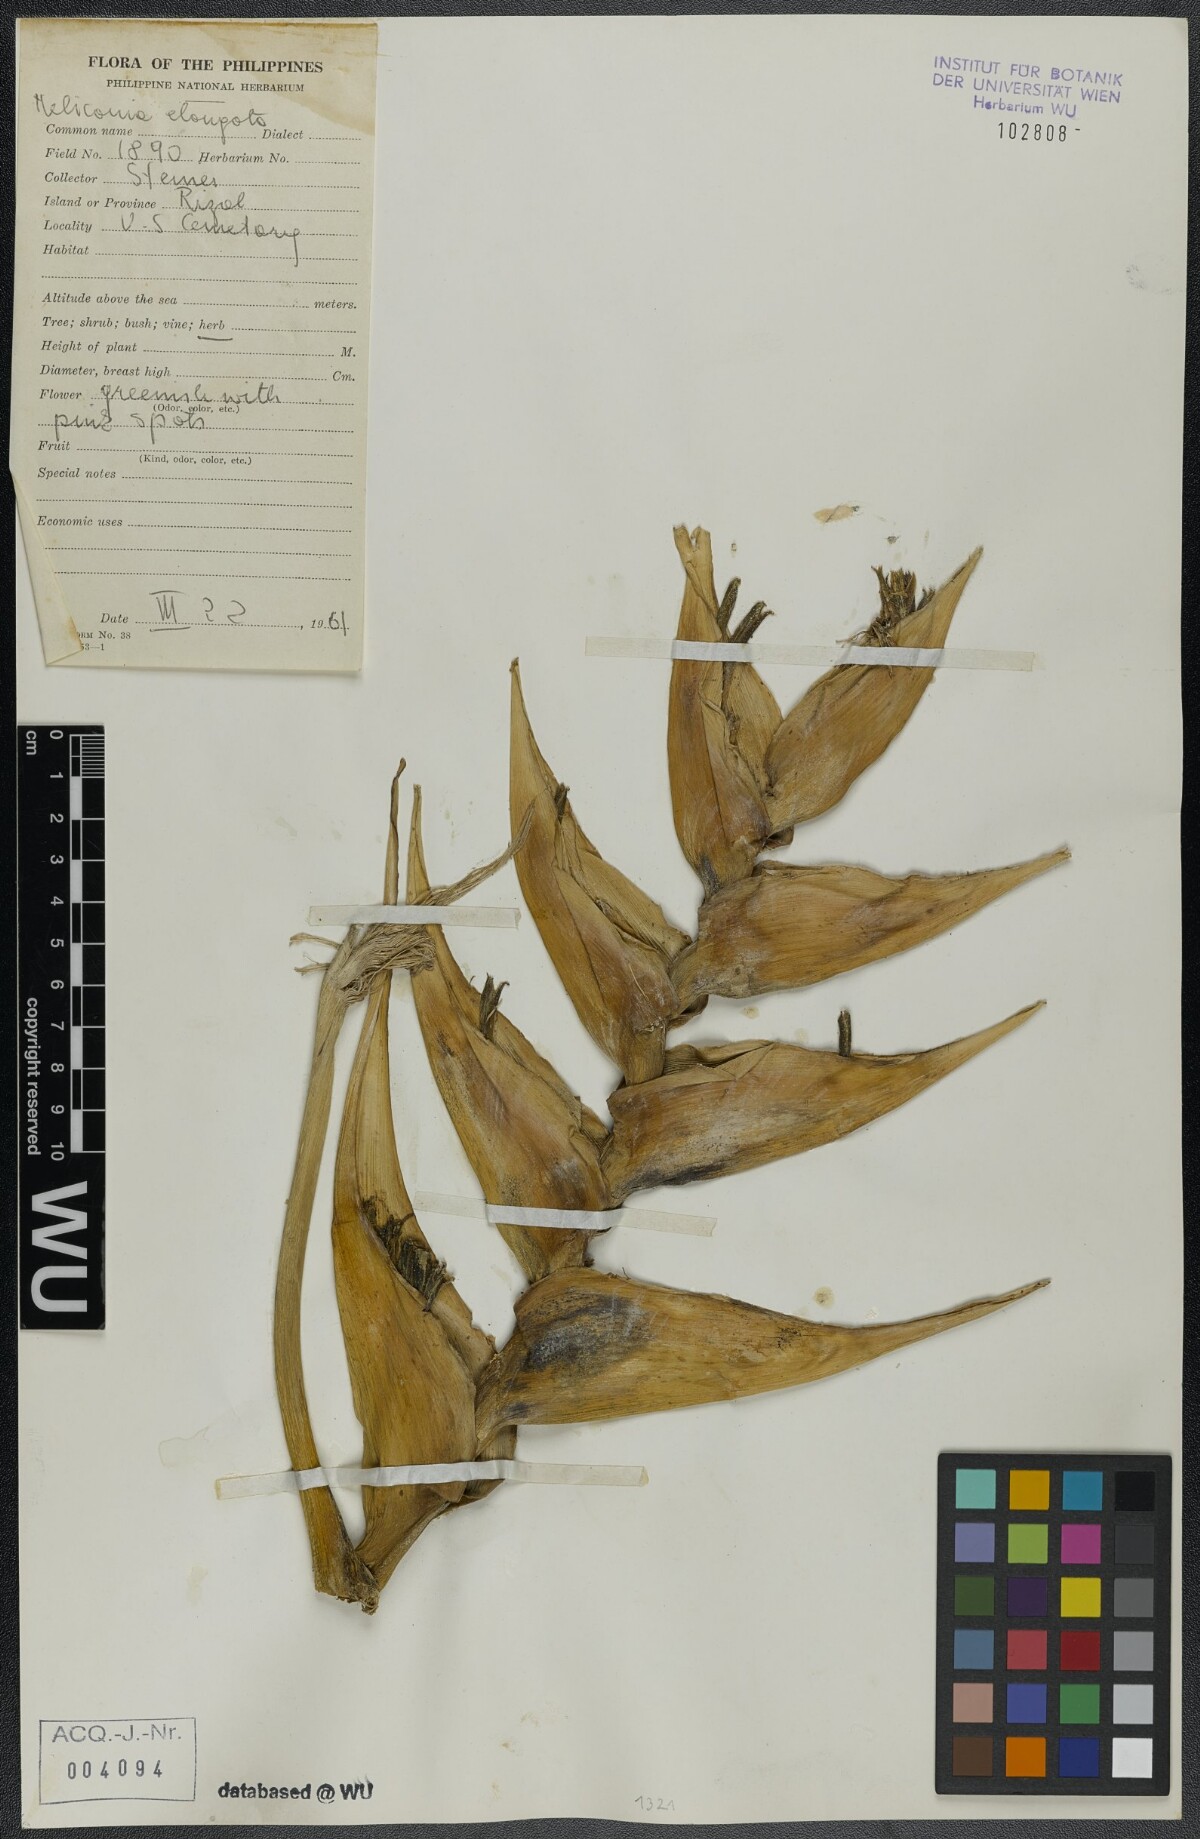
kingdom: Plantae
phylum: Tracheophyta
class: Liliopsida
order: Zingiberales
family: Heliconiaceae
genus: Heliconia
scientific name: Heliconia wagneriana
